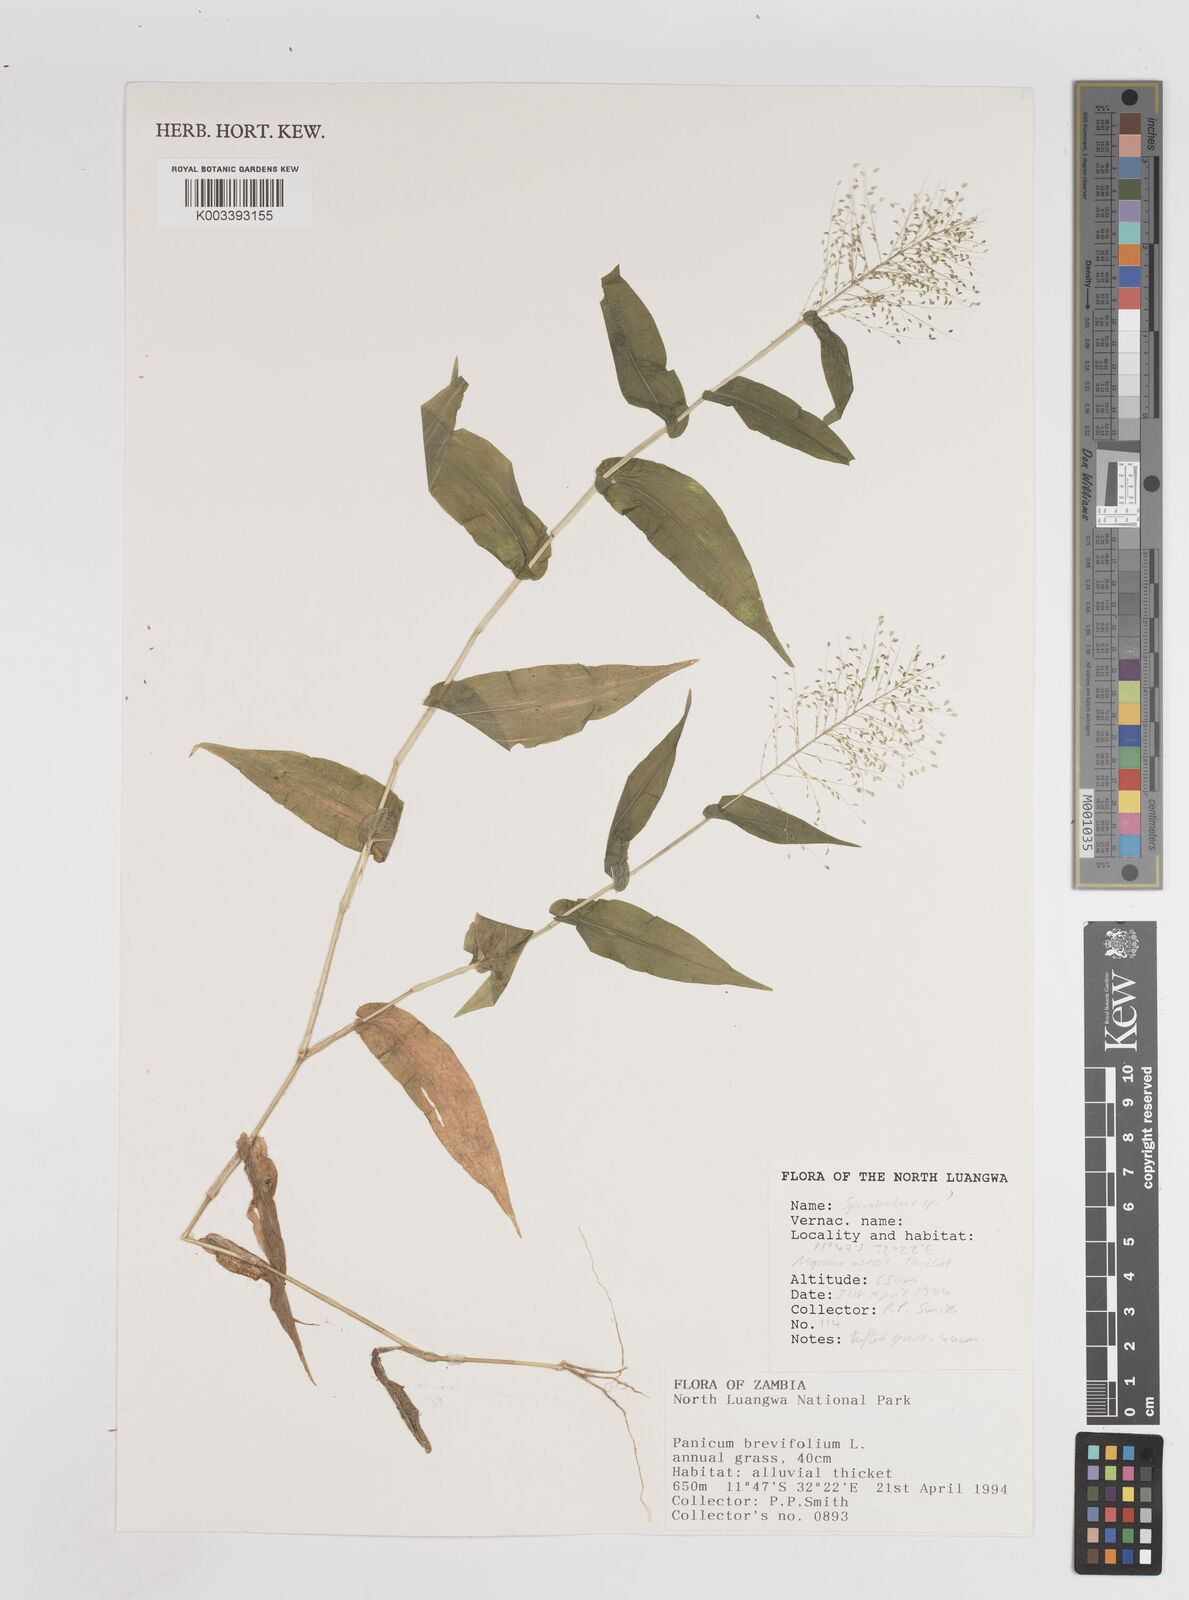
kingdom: Plantae
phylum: Tracheophyta
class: Liliopsida
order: Poales
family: Poaceae
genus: Panicum
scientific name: Panicum brevifolium
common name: Shortleaf panic grass
